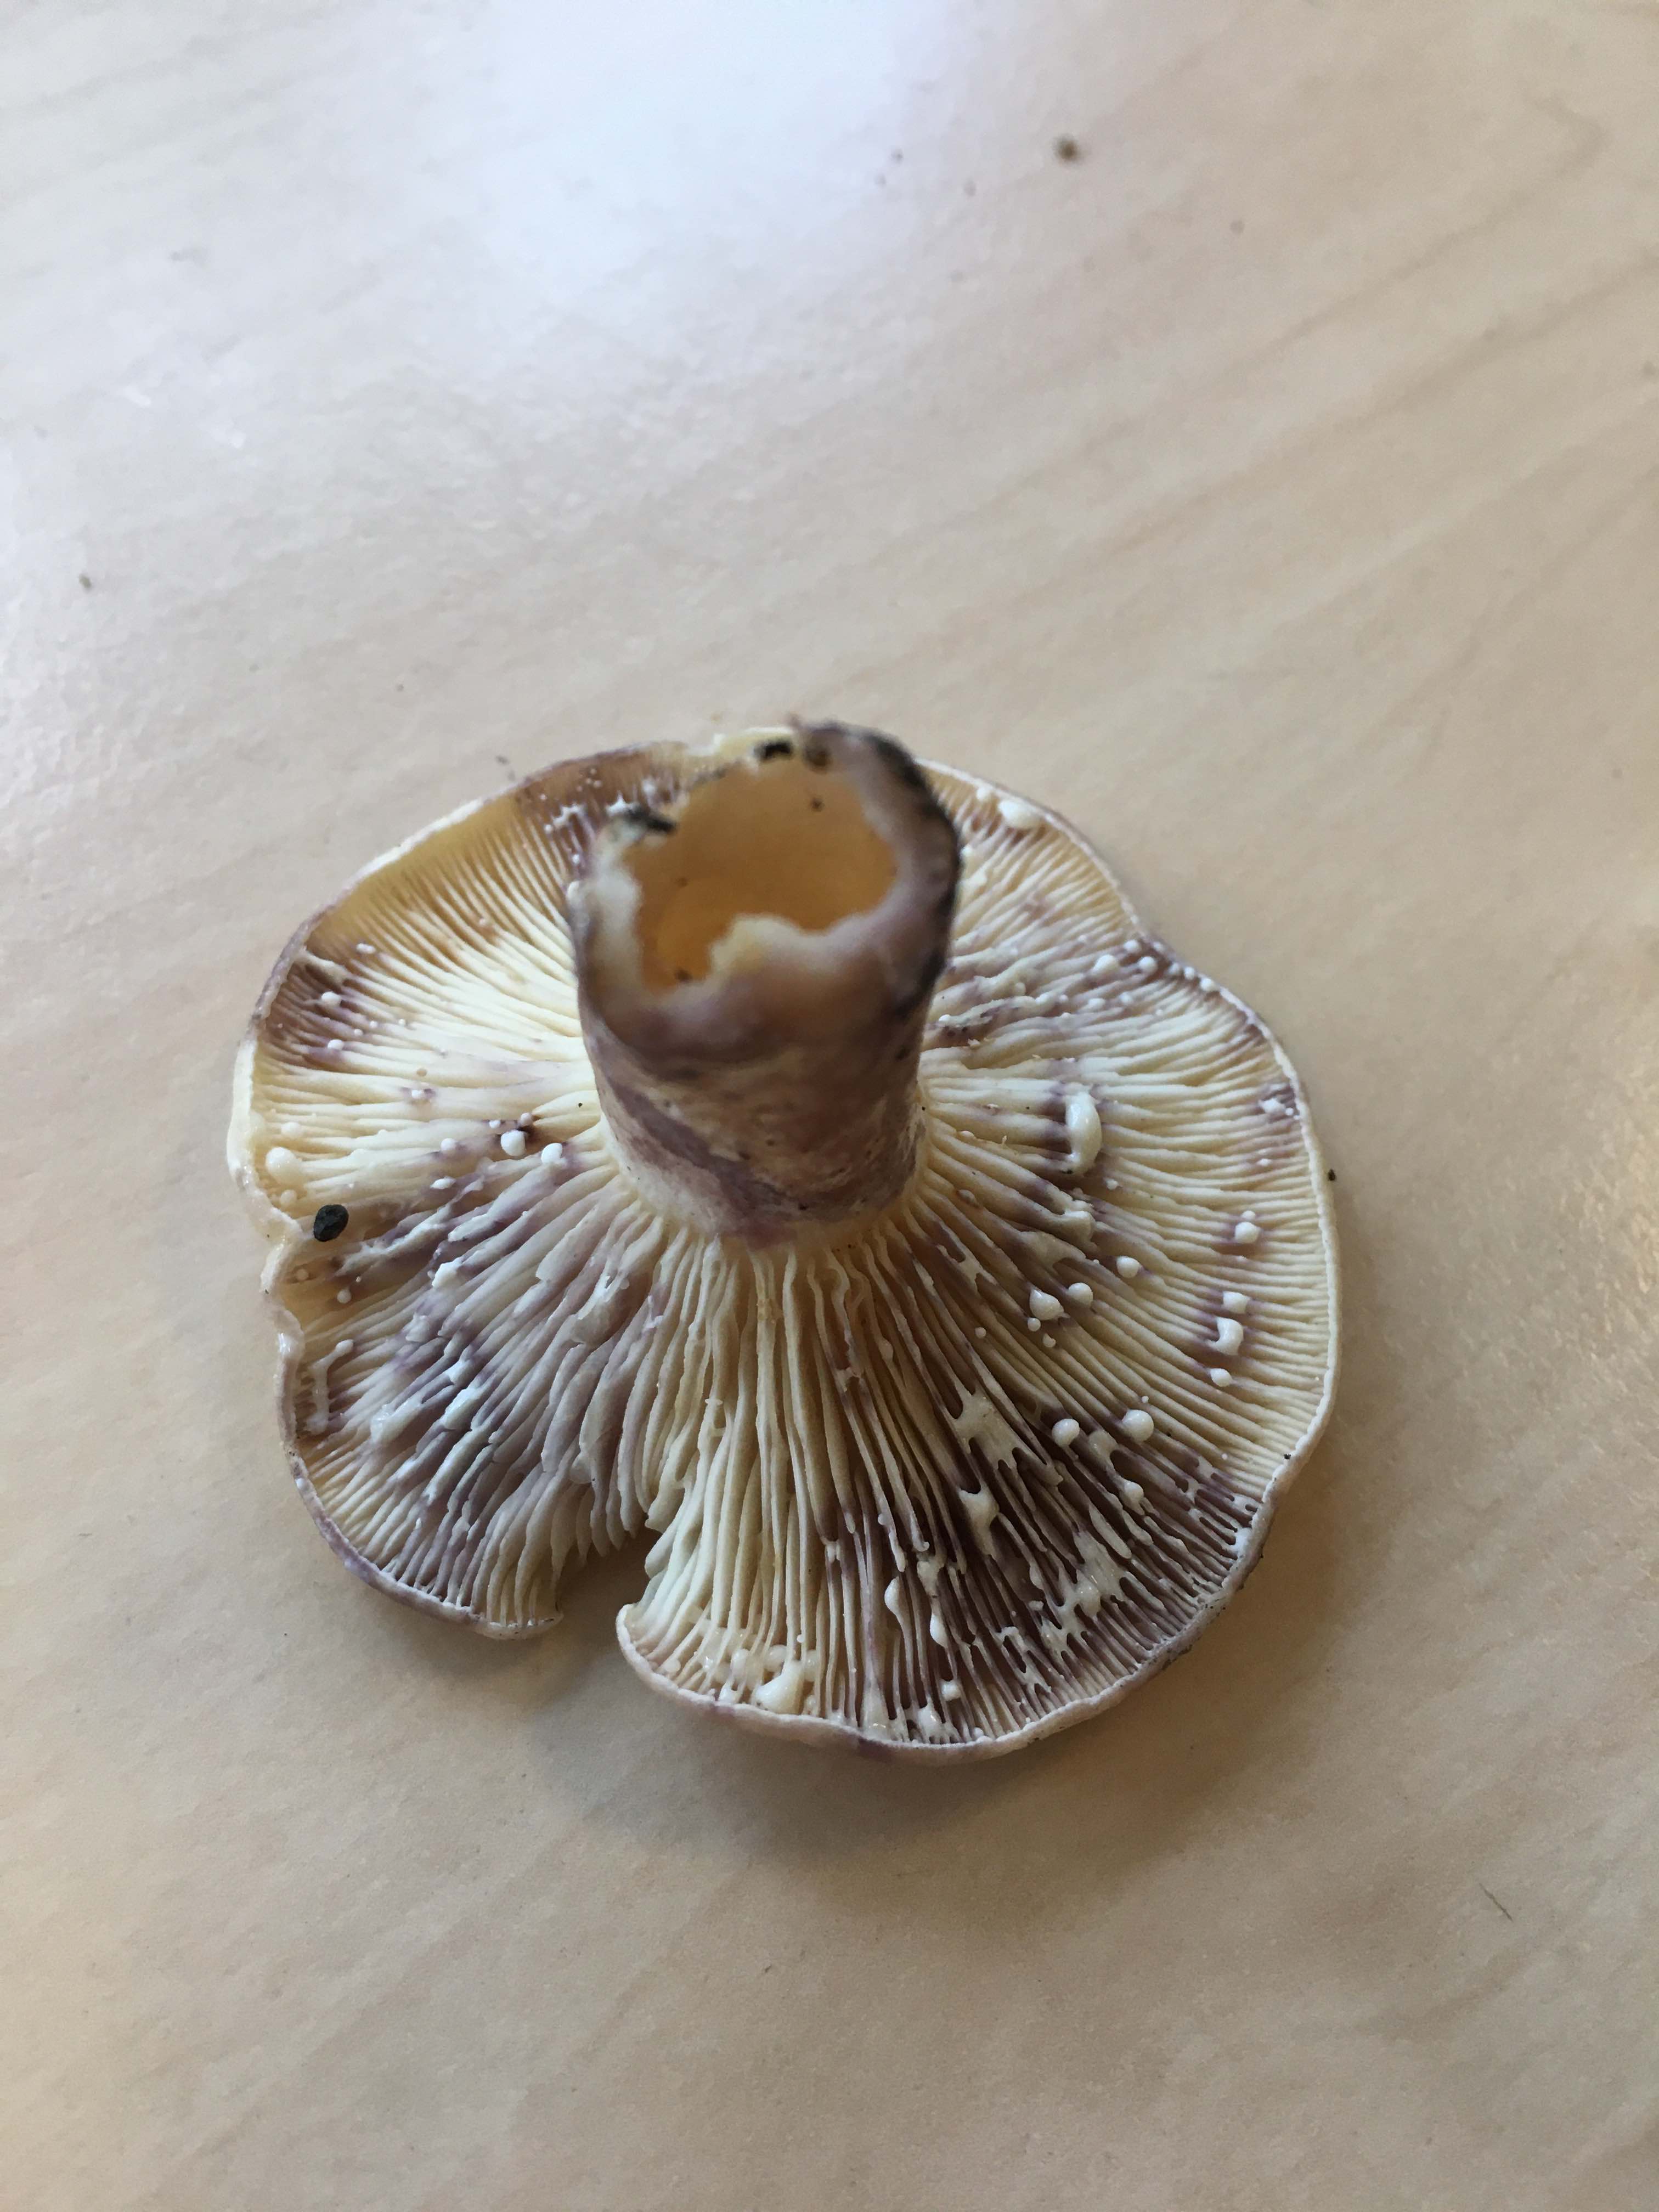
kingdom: Fungi
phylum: Basidiomycota
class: Agaricomycetes
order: Russulales
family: Russulaceae
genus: Lactarius
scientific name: Lactarius aspideus
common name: pile-mælkehat
